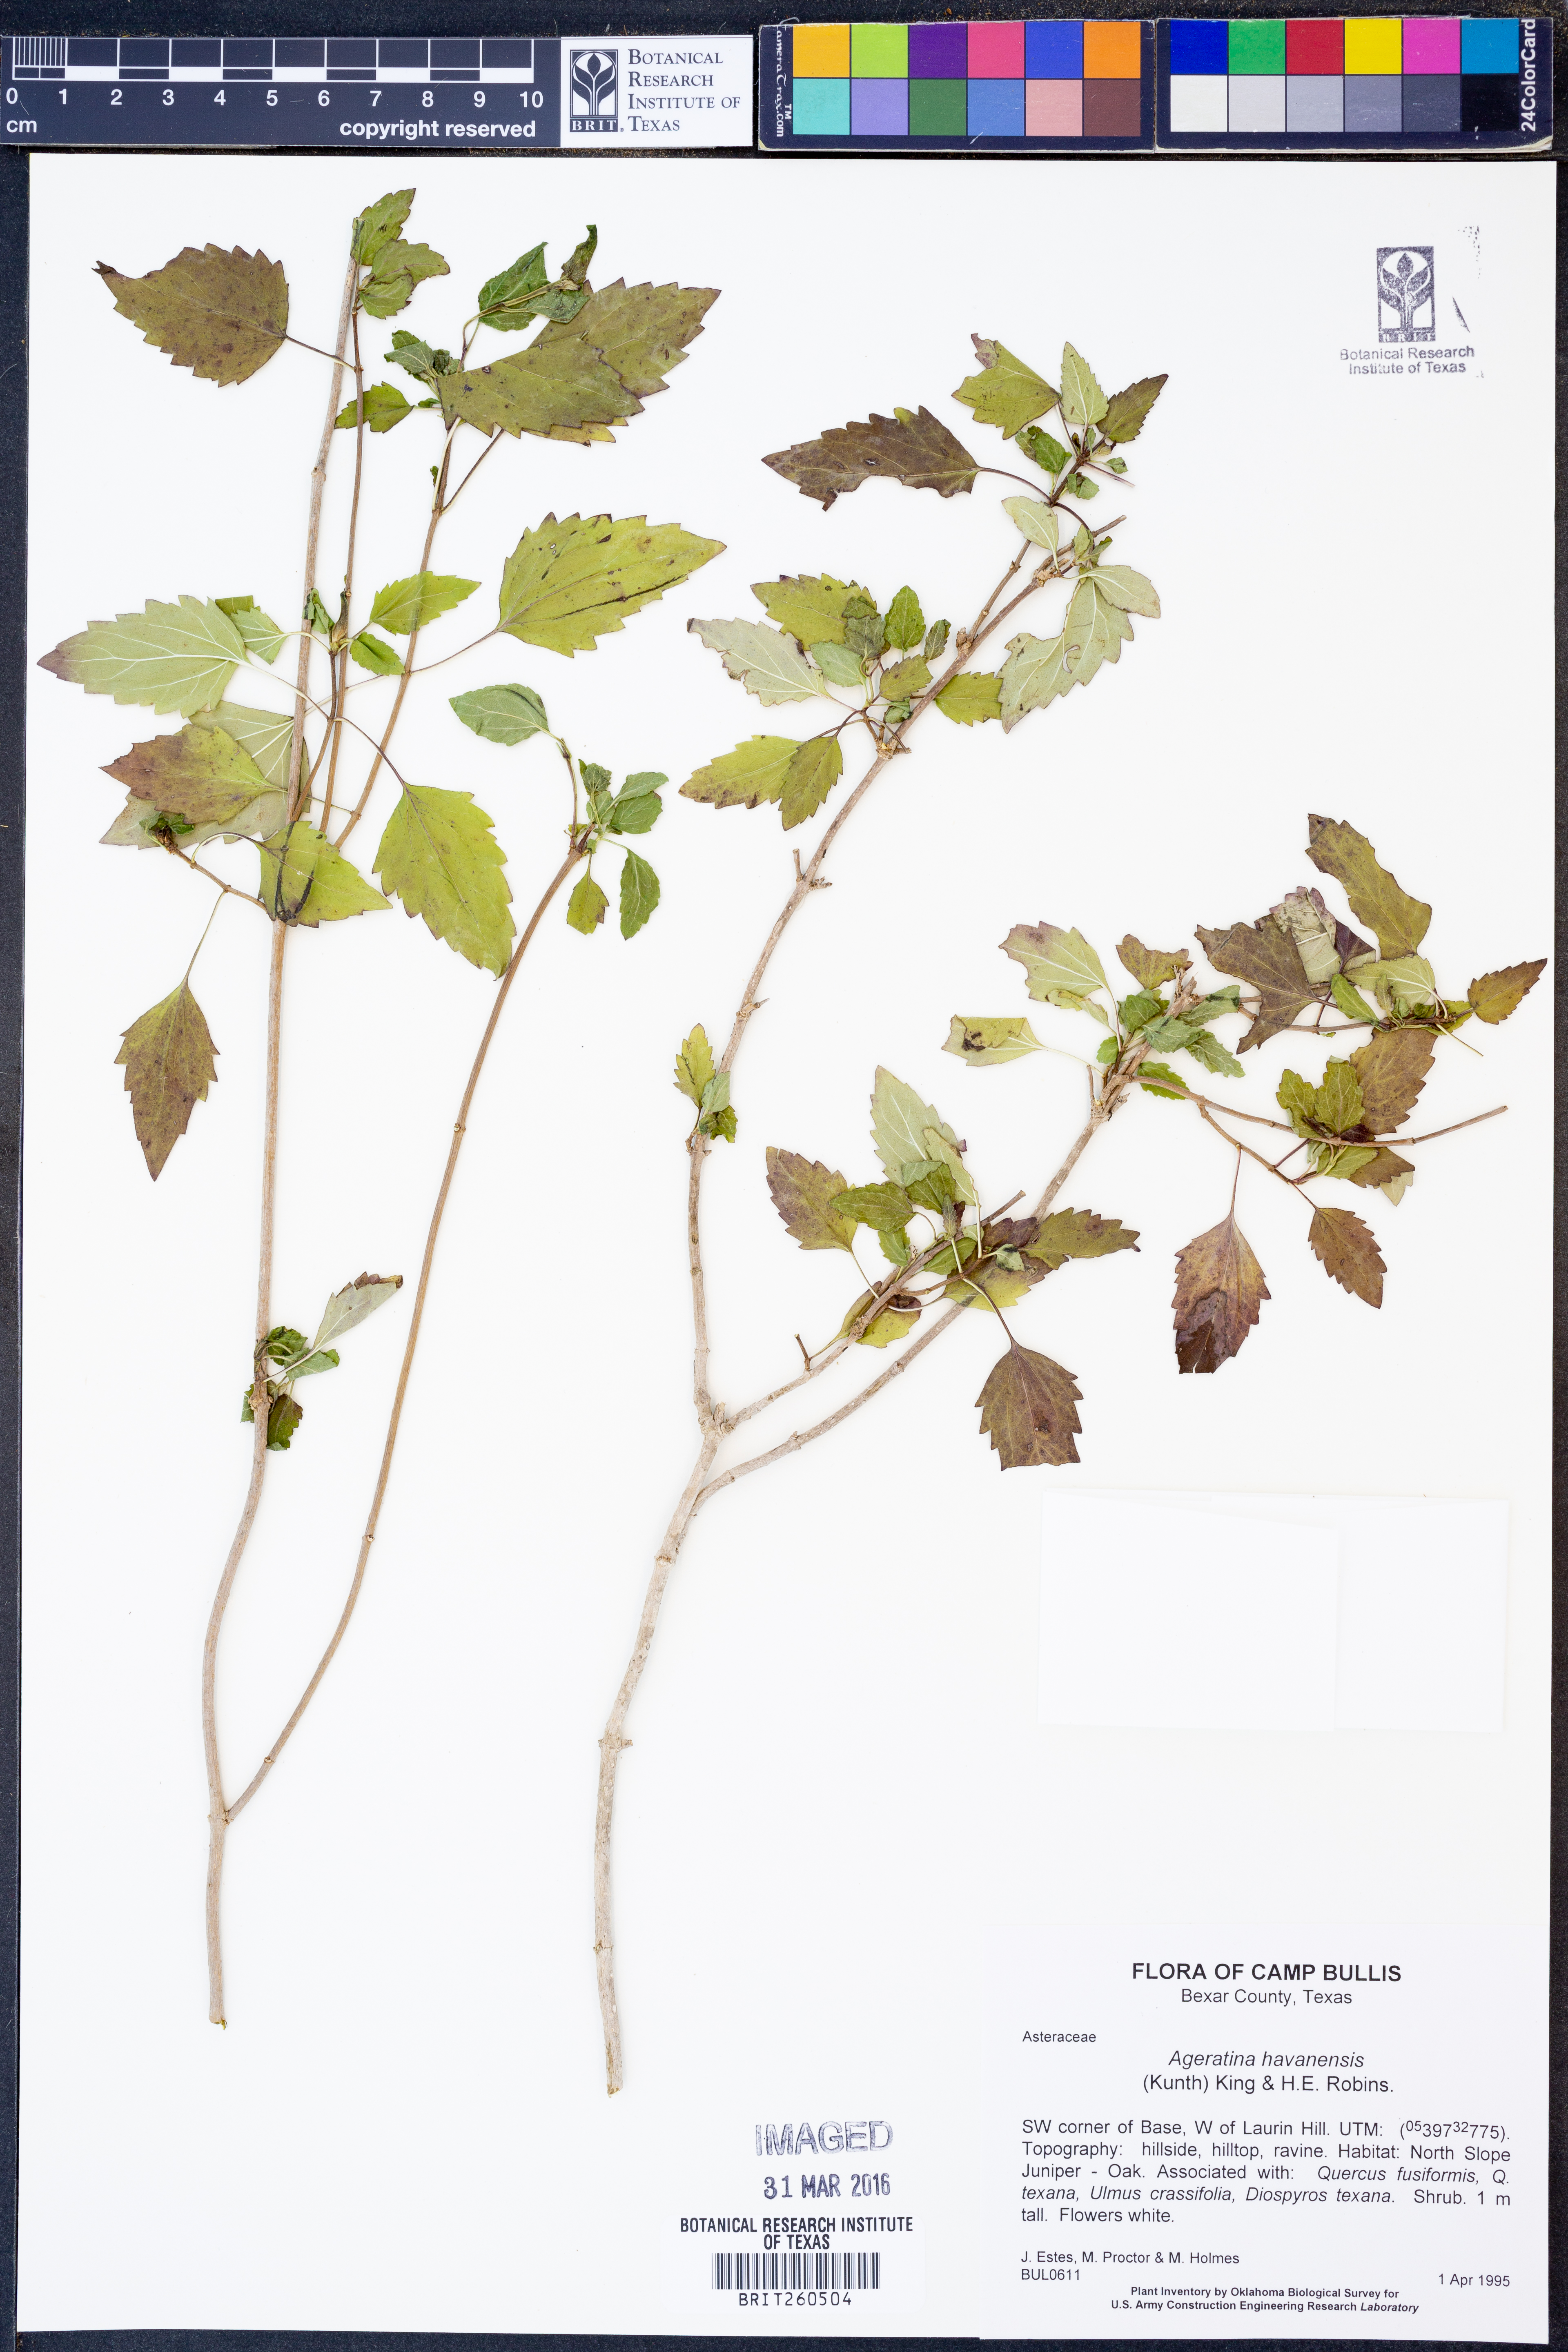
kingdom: Plantae
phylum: Tracheophyta
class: Magnoliopsida
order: Asterales
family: Asteraceae
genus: Ageratina
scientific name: Ageratina havanensis
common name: Havana snakeroot
